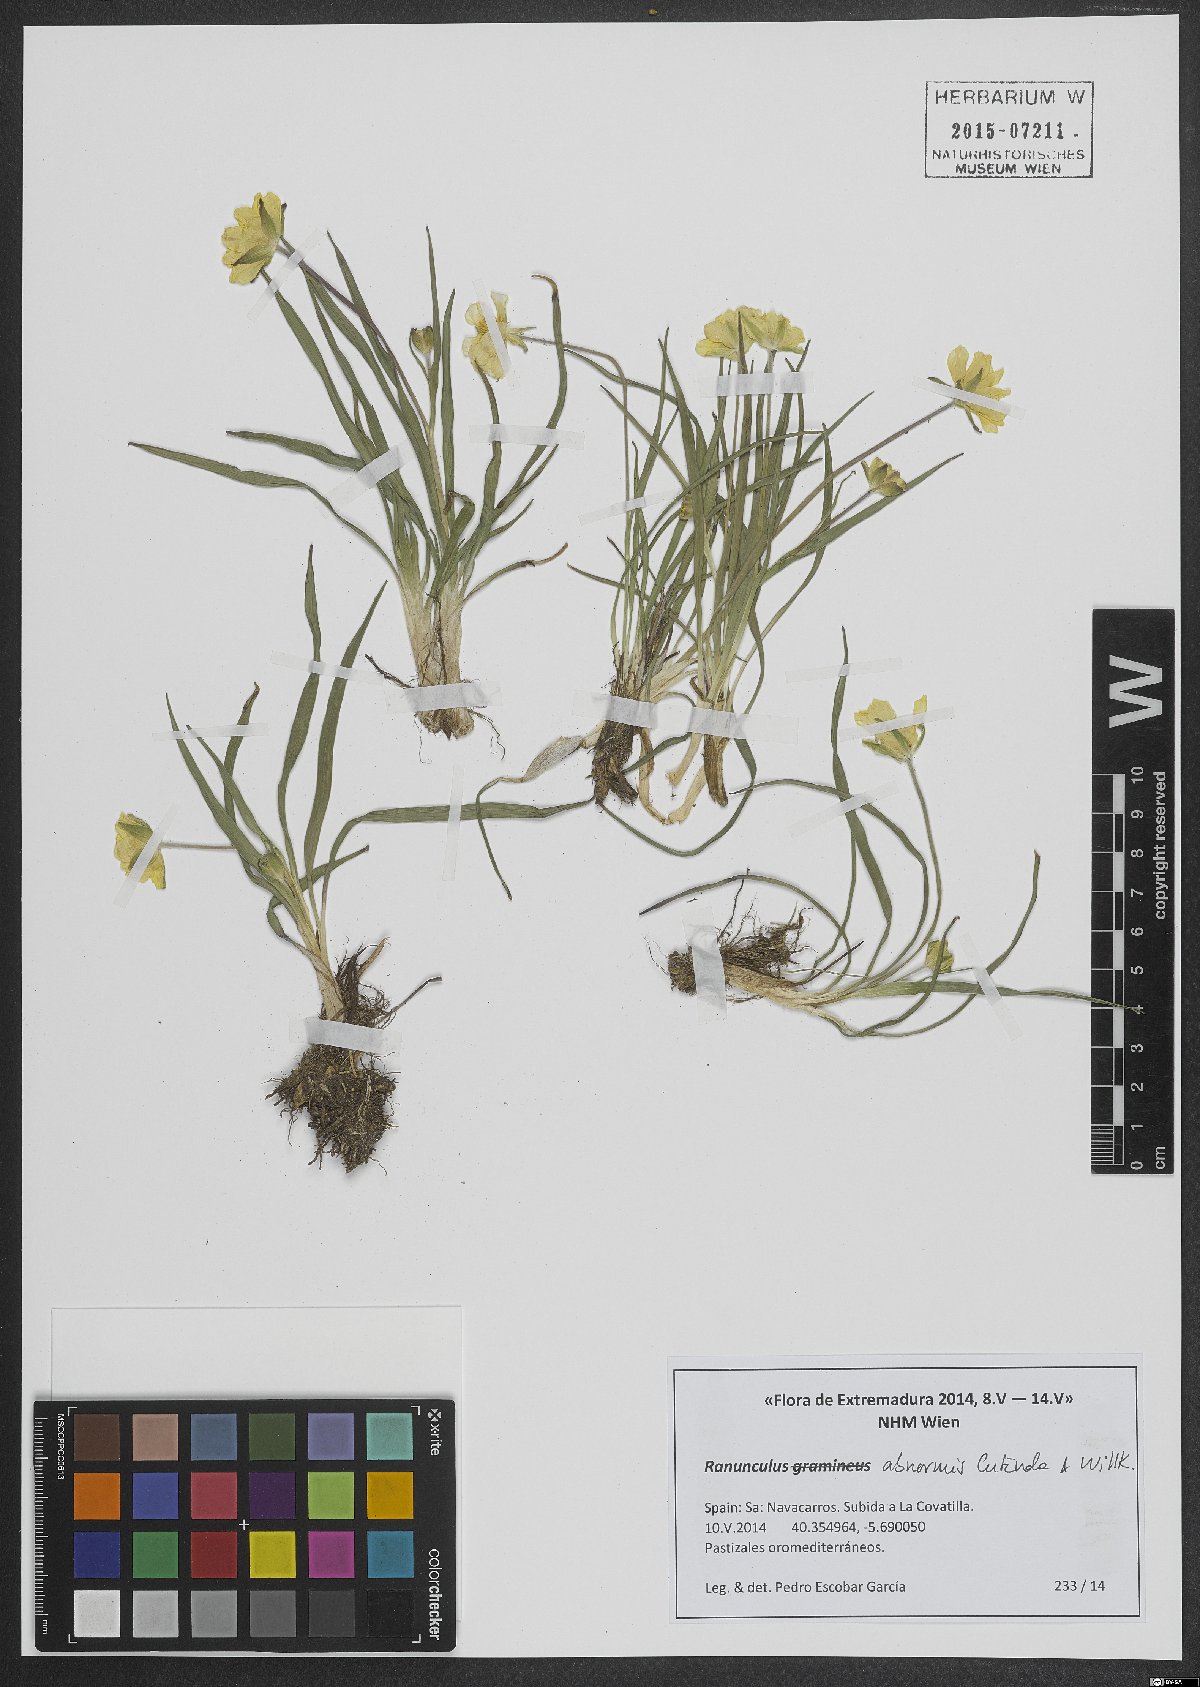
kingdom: Plantae
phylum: Tracheophyta
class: Magnoliopsida
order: Ranunculales
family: Ranunculaceae
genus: Ranunculus
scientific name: Ranunculus abnormis
